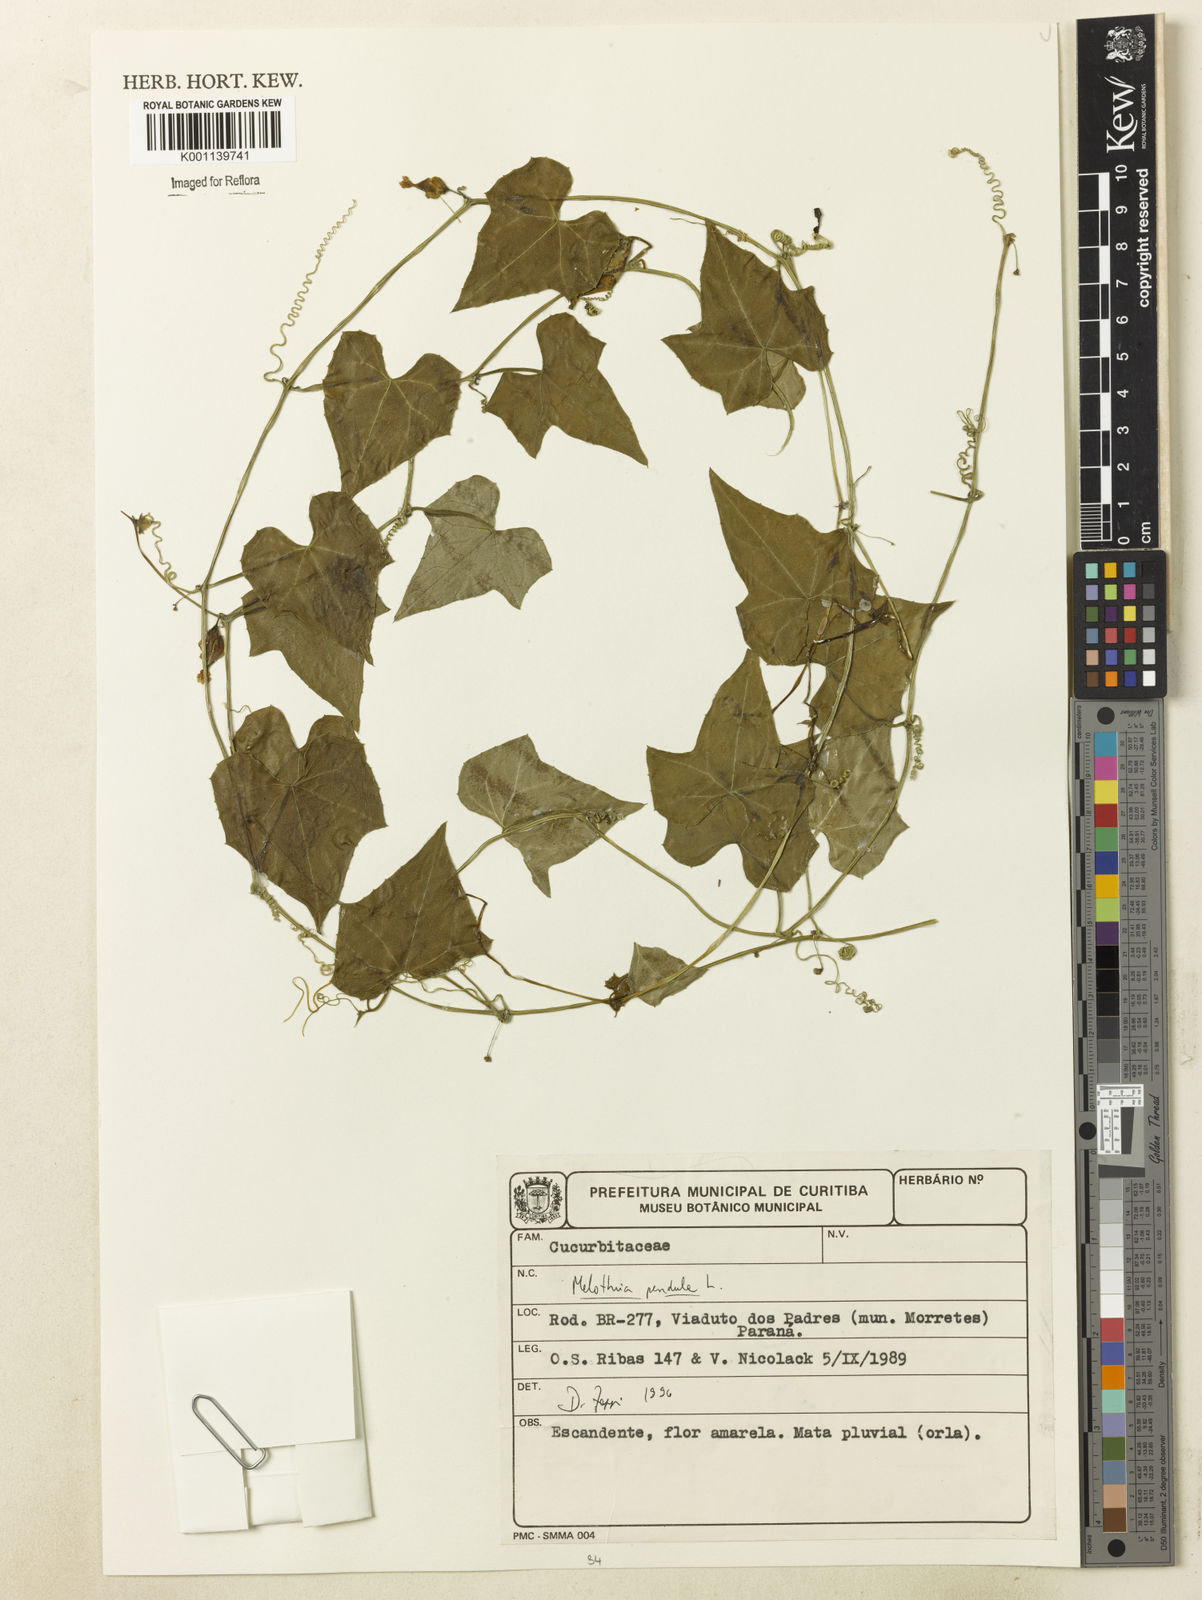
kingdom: Plantae
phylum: Tracheophyta
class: Magnoliopsida
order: Cucurbitales
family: Cucurbitaceae
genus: Melothria
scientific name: Melothria pendula
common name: Creeping-cucumber
